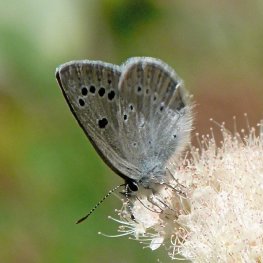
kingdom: Animalia
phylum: Arthropoda
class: Insecta
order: Lepidoptera
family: Lycaenidae
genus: Glaucopsyche
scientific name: Glaucopsyche lygdamus
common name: Silvery Blue
